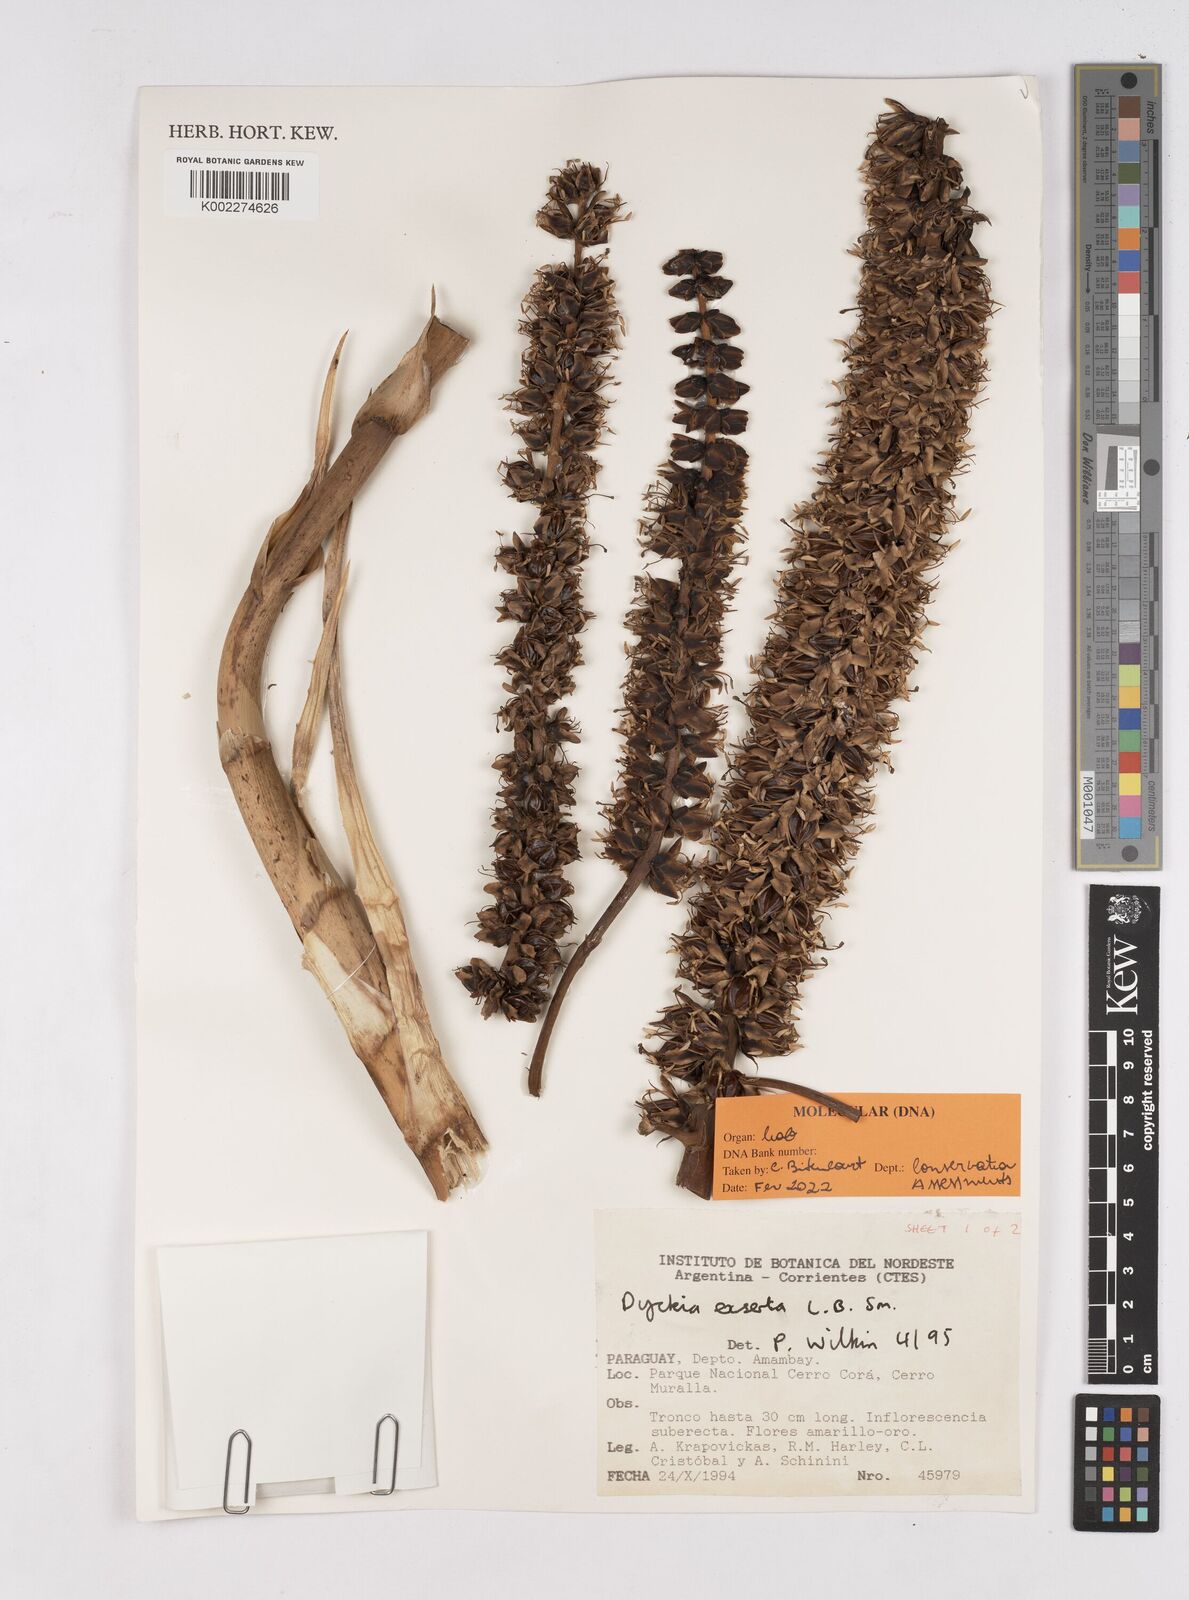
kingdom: Plantae
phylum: Tracheophyta
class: Liliopsida
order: Poales
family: Bromeliaceae
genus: Dyckia
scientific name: Dyckia exserta
